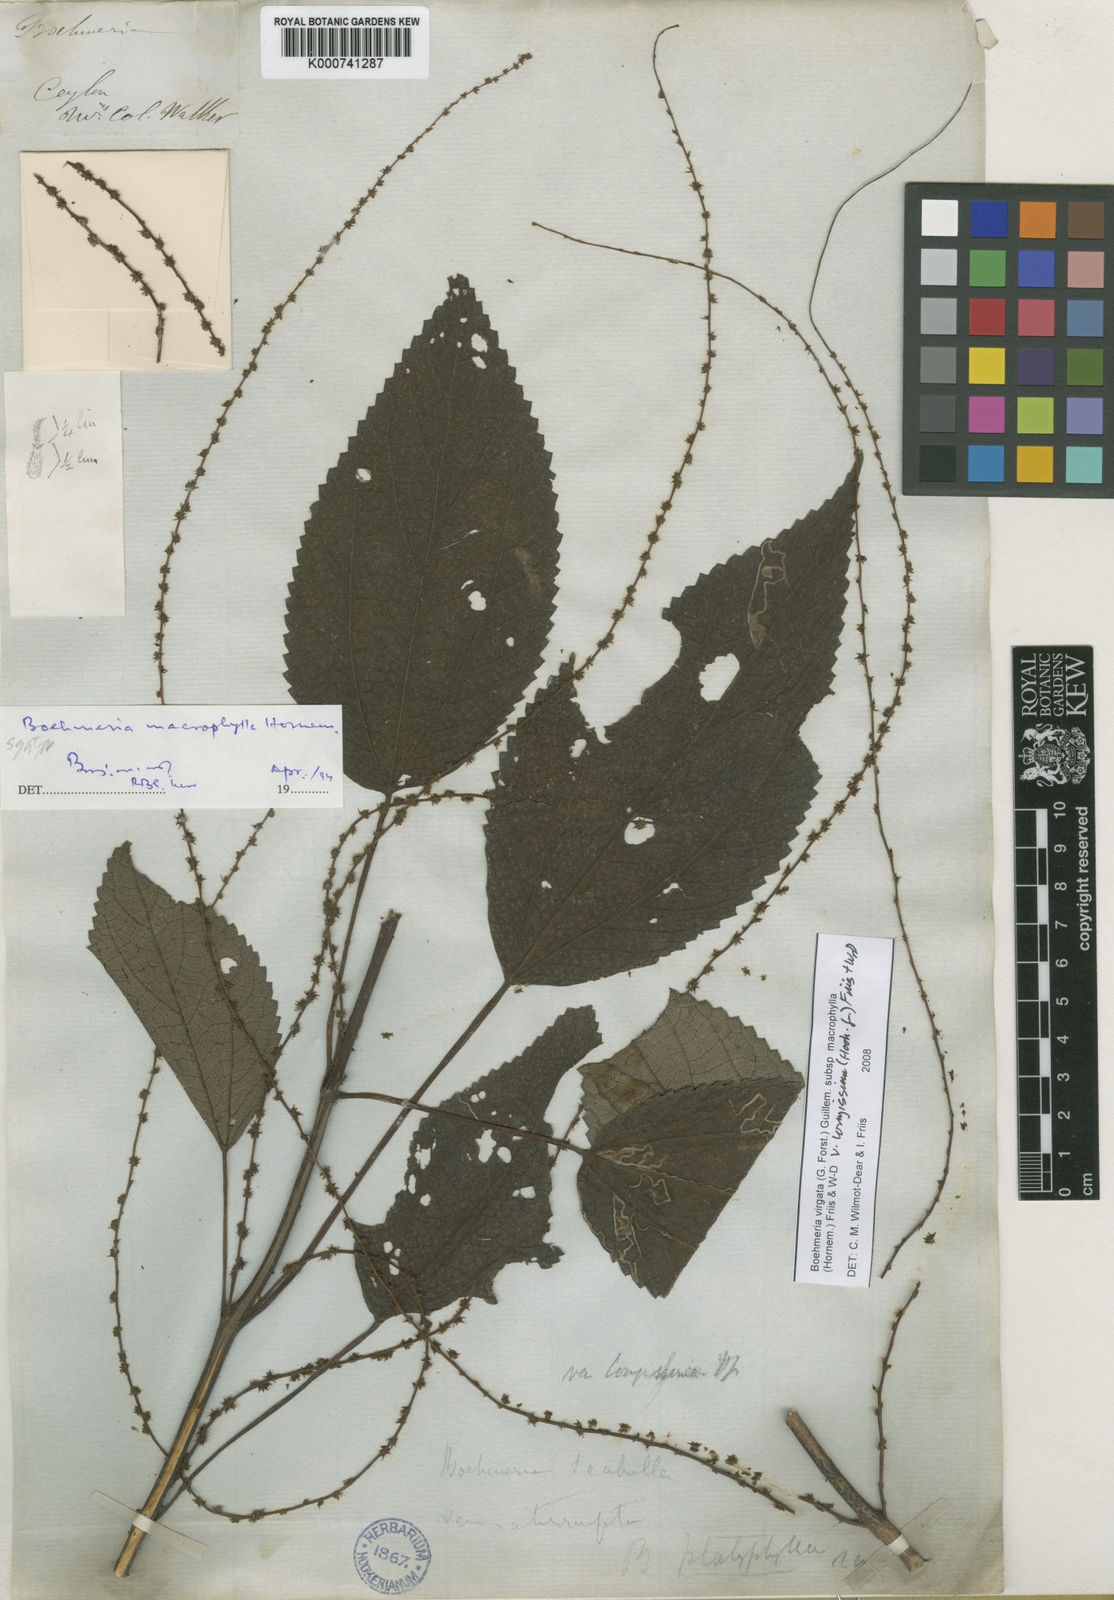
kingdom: Plantae
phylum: Tracheophyta
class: Magnoliopsida
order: Rosales
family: Urticaceae
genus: Boehmeria
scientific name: Boehmeria virgata
